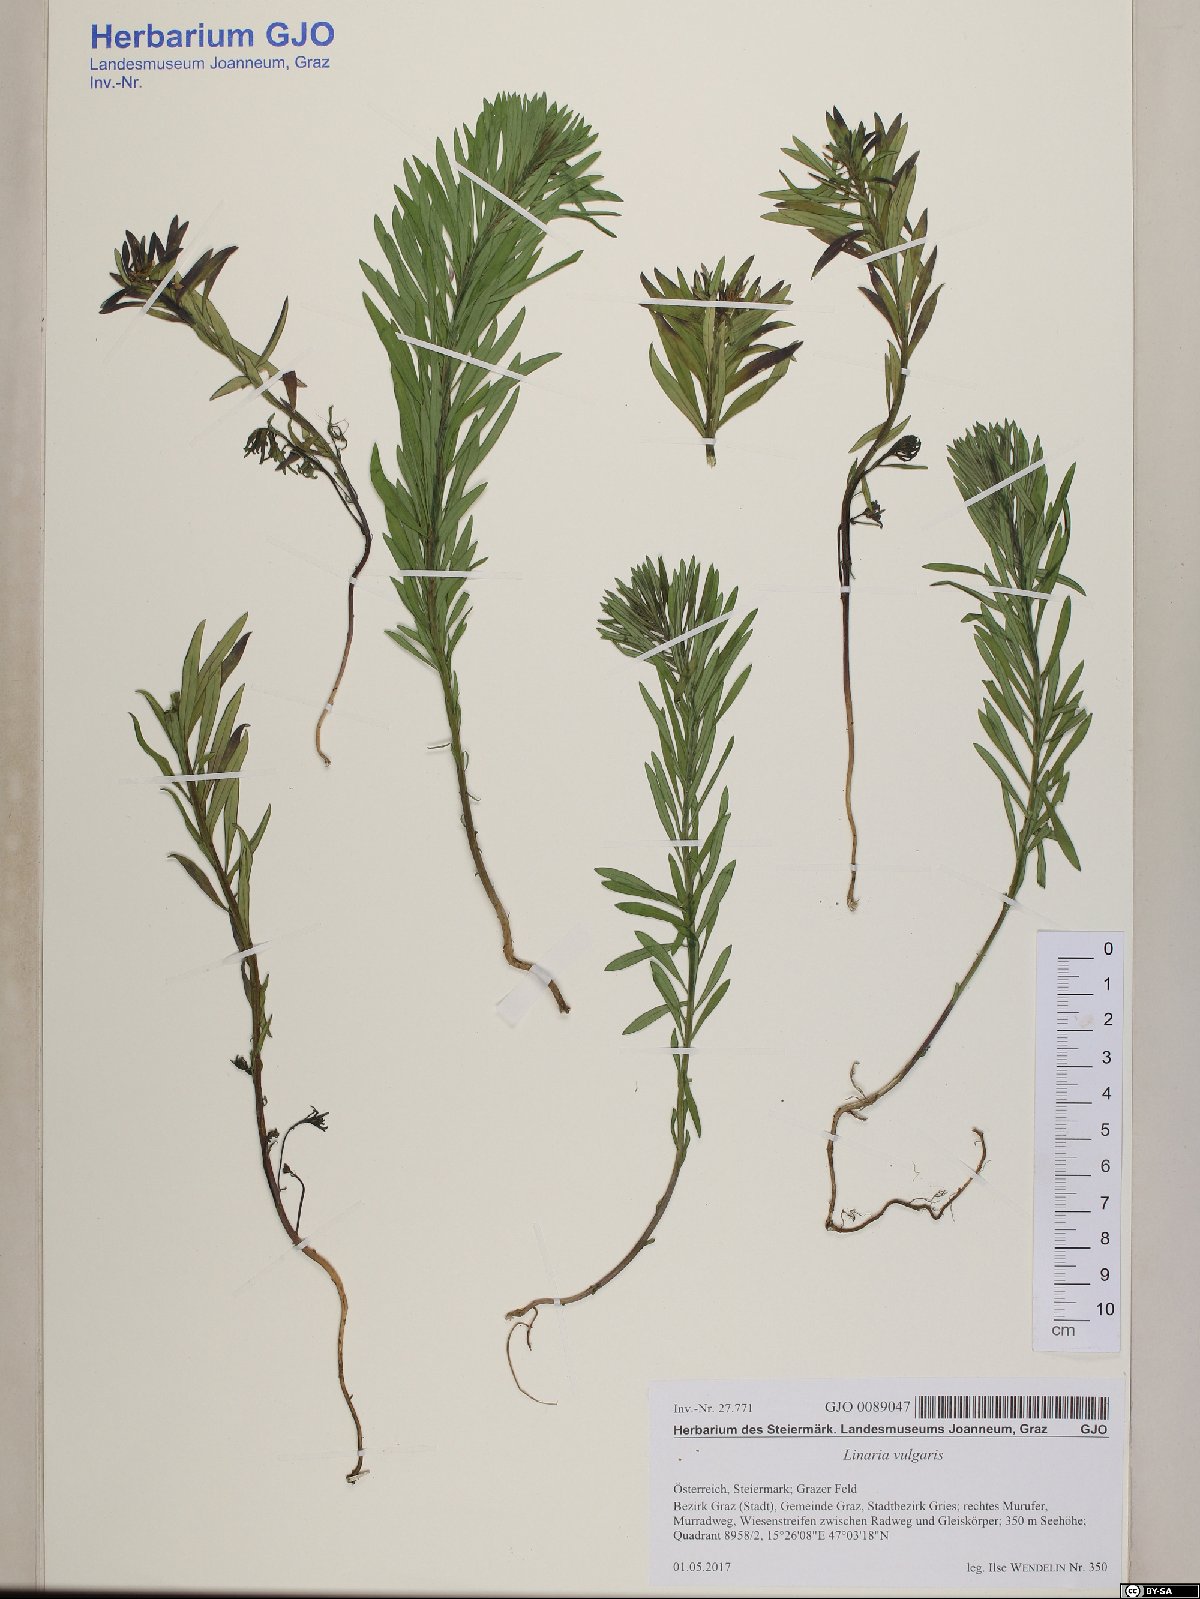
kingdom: Plantae
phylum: Tracheophyta
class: Magnoliopsida
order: Lamiales
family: Plantaginaceae
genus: Linaria
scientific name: Linaria vulgaris
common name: Butter and eggs
